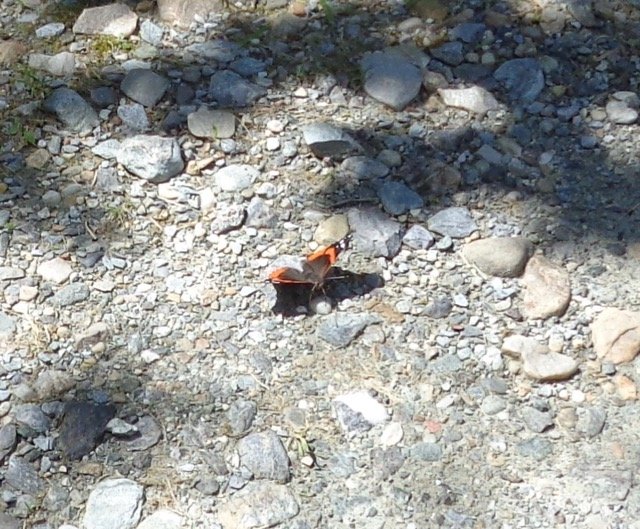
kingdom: Animalia
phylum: Arthropoda
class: Insecta
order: Lepidoptera
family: Nymphalidae
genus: Vanessa
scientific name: Vanessa atalanta
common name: Red Admiral
